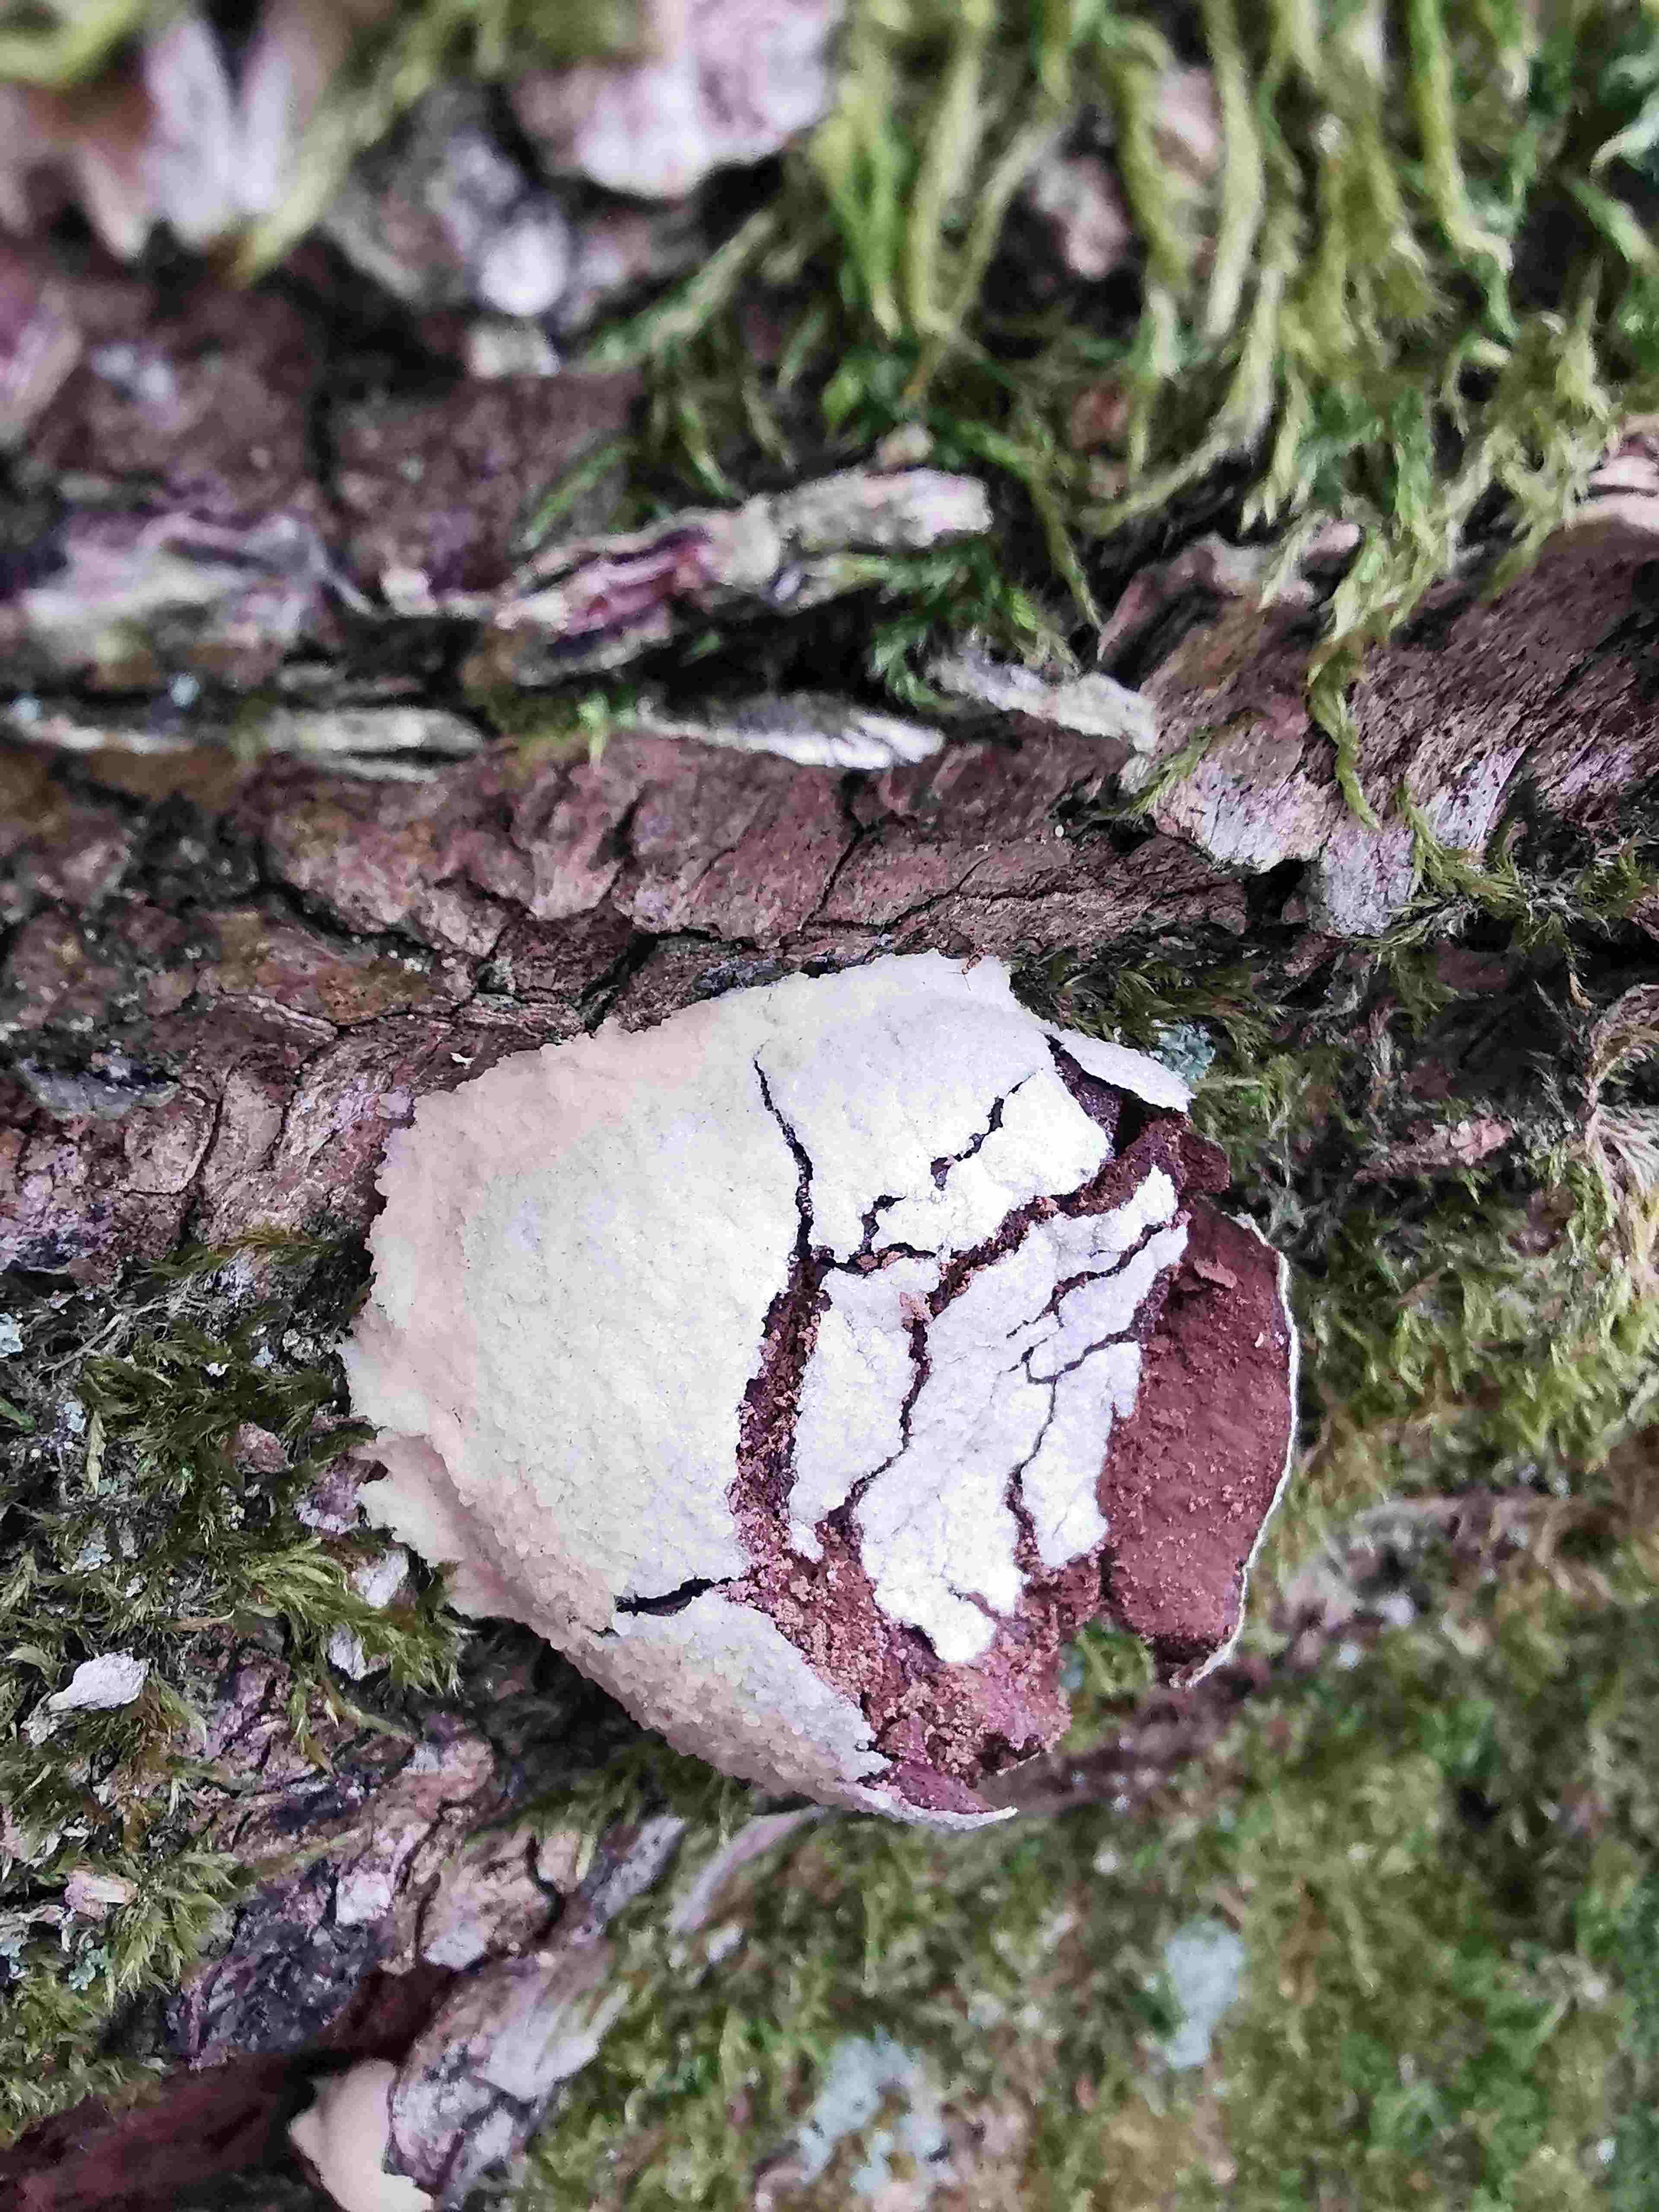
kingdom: Protozoa
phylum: Mycetozoa
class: Myxomycetes
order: Cribrariales
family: Tubiferaceae
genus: Reticularia
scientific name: Reticularia lycoperdon
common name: skinnende støvpude
